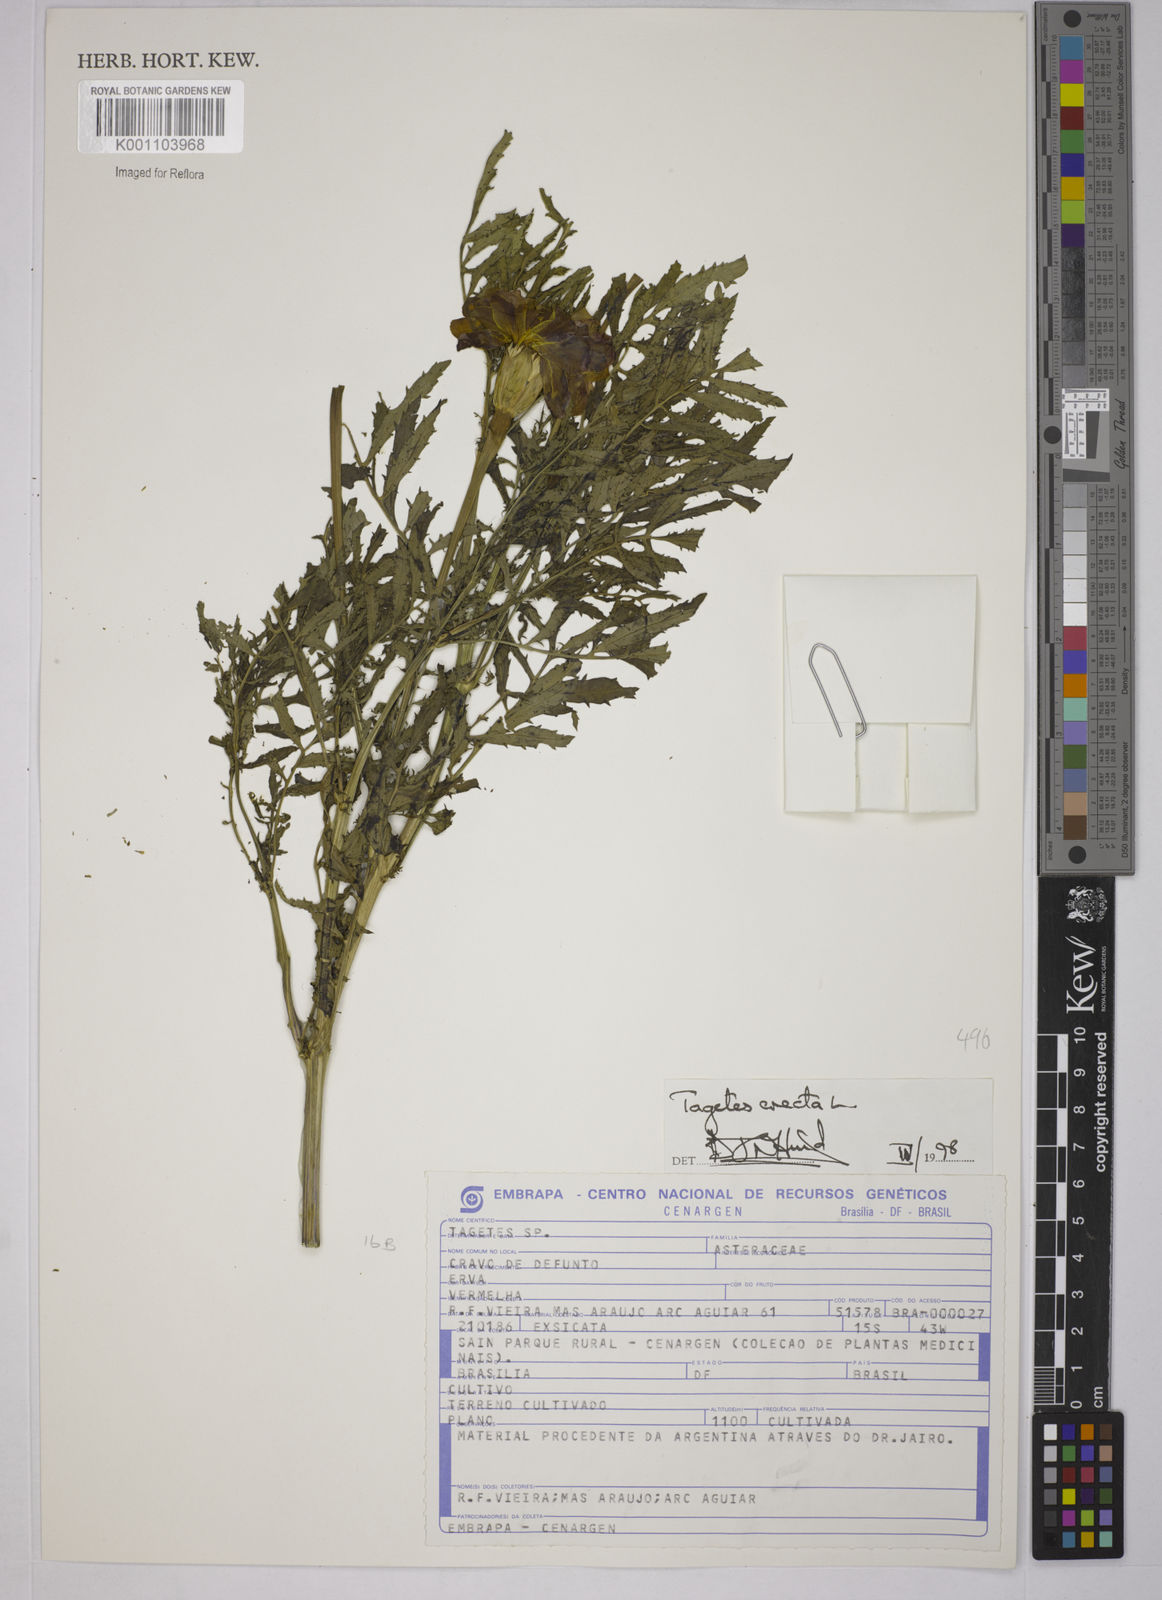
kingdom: Plantae
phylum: Tracheophyta
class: Magnoliopsida
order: Asterales
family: Asteraceae
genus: Tagetes
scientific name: Tagetes erecta
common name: African marigold
